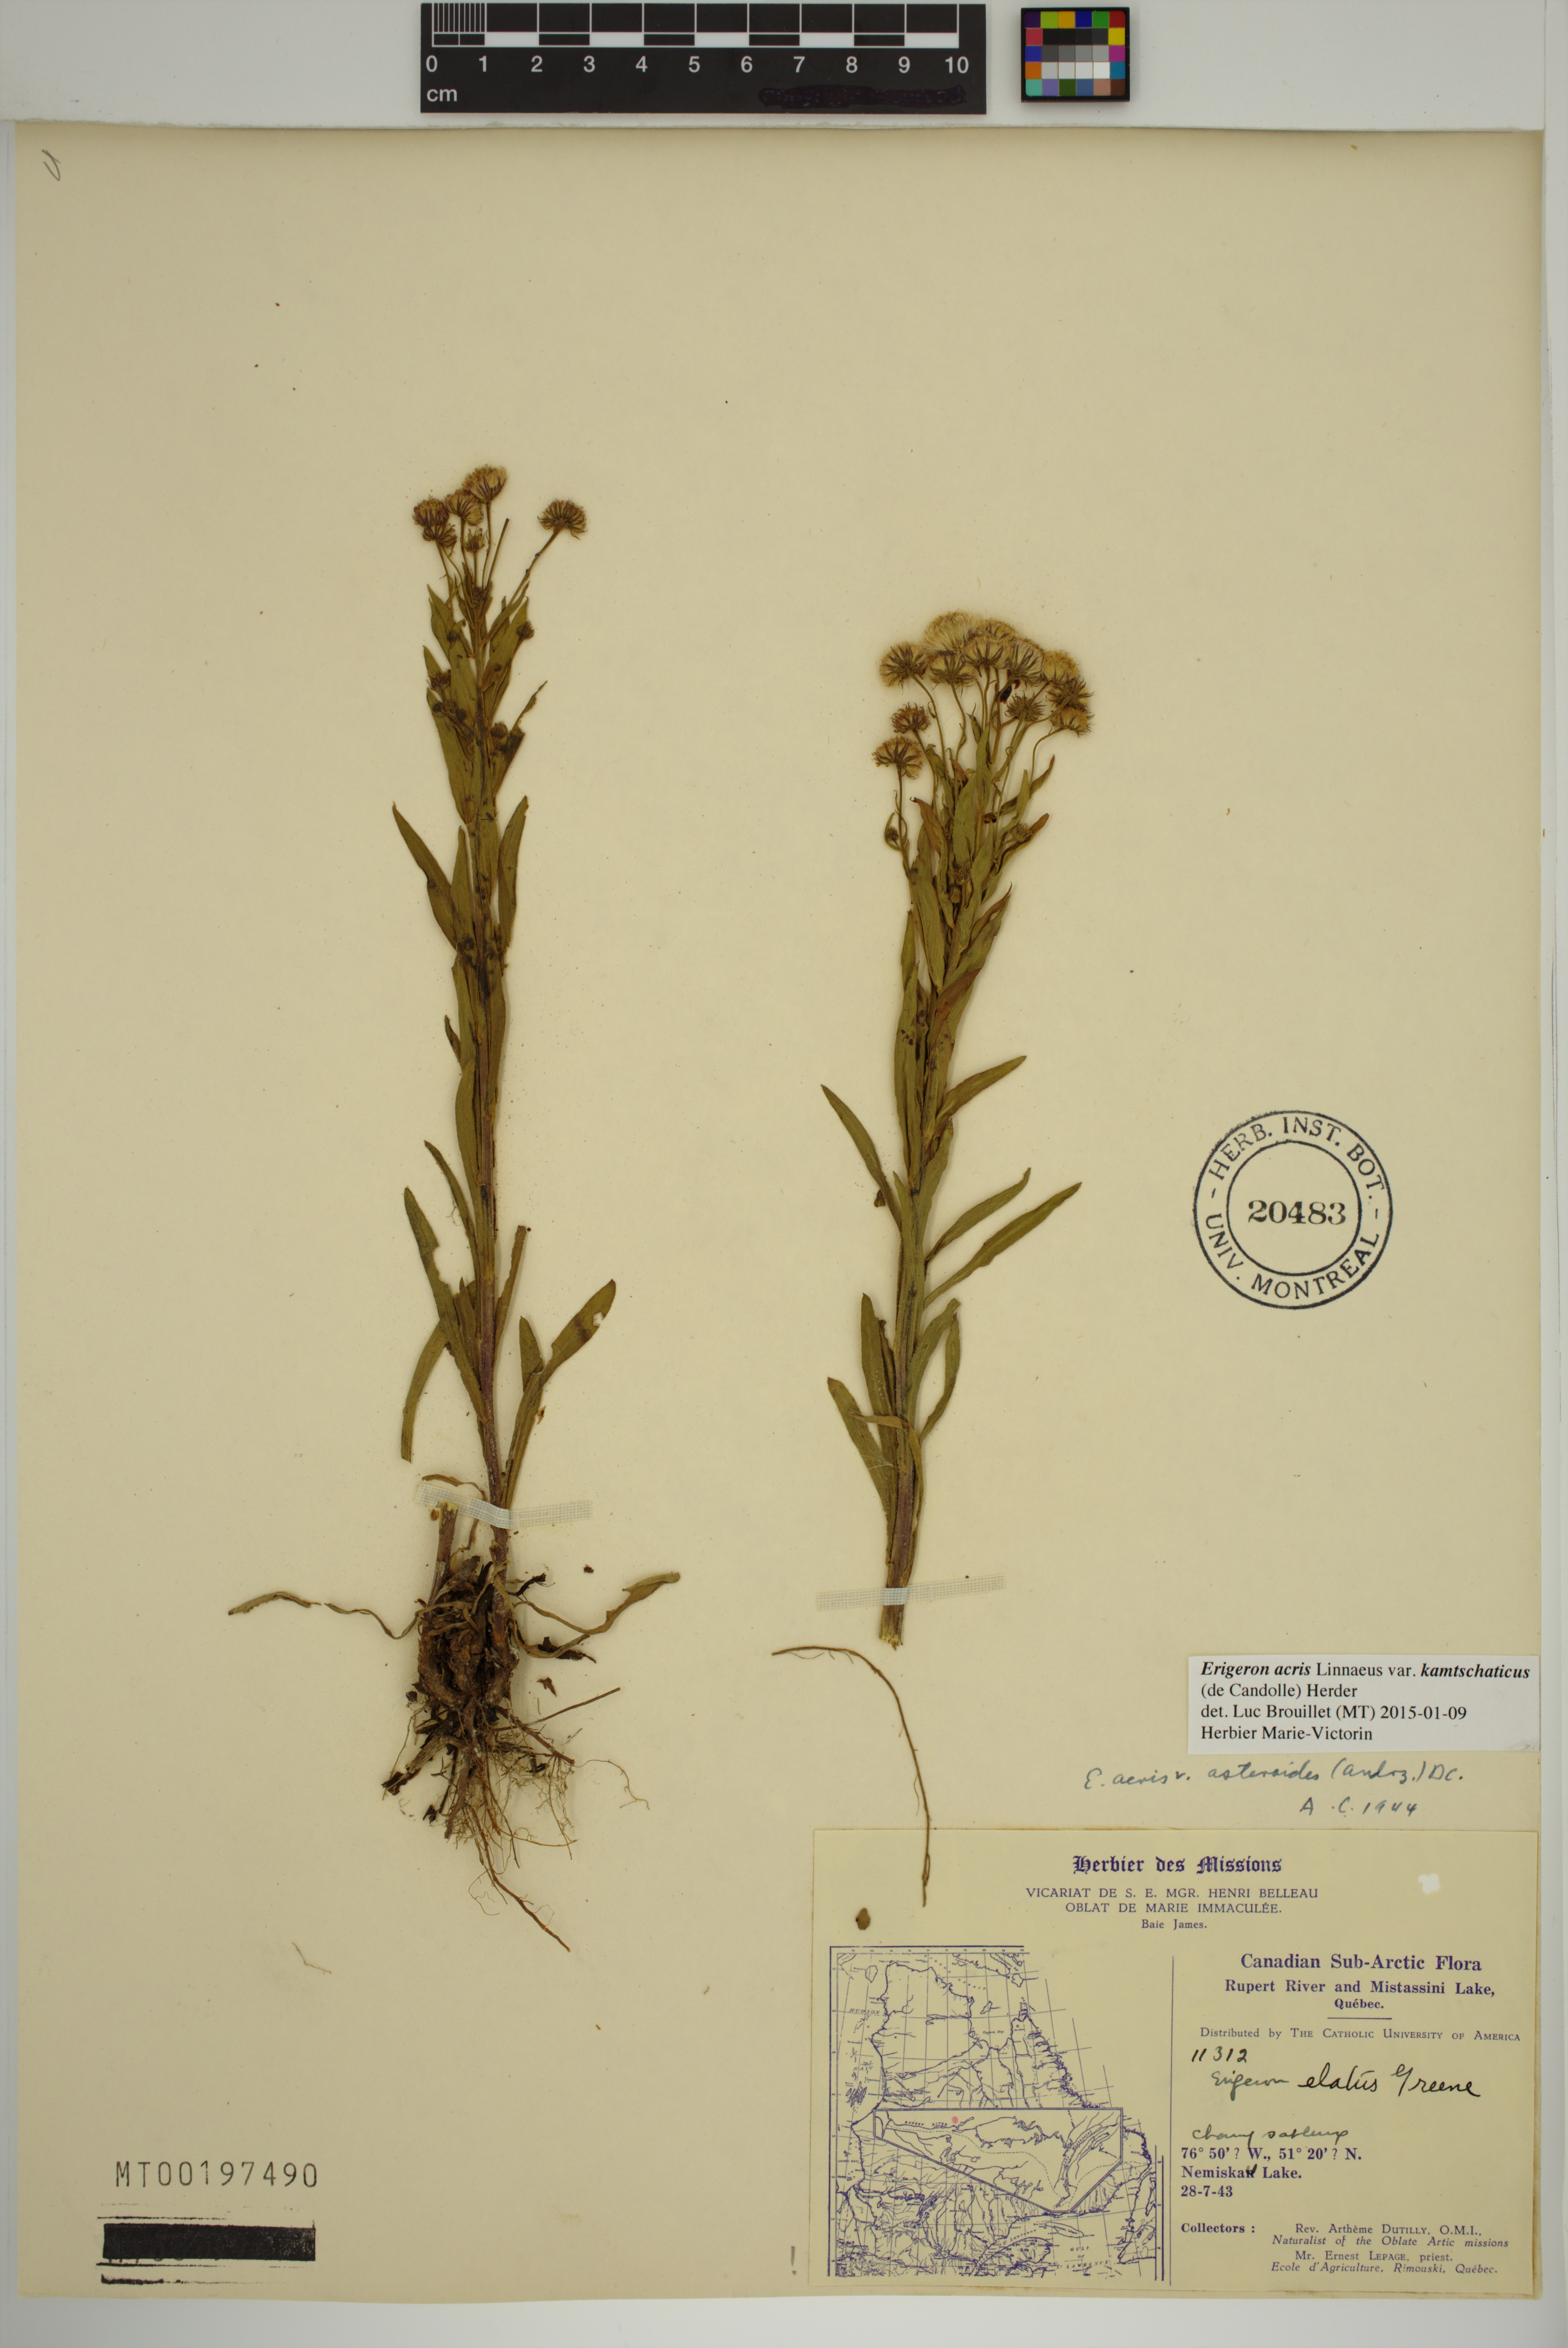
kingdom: Plantae
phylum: Tracheophyta
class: Magnoliopsida
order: Asterales
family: Asteraceae
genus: Erigeron
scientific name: Erigeron kamtschaticus
